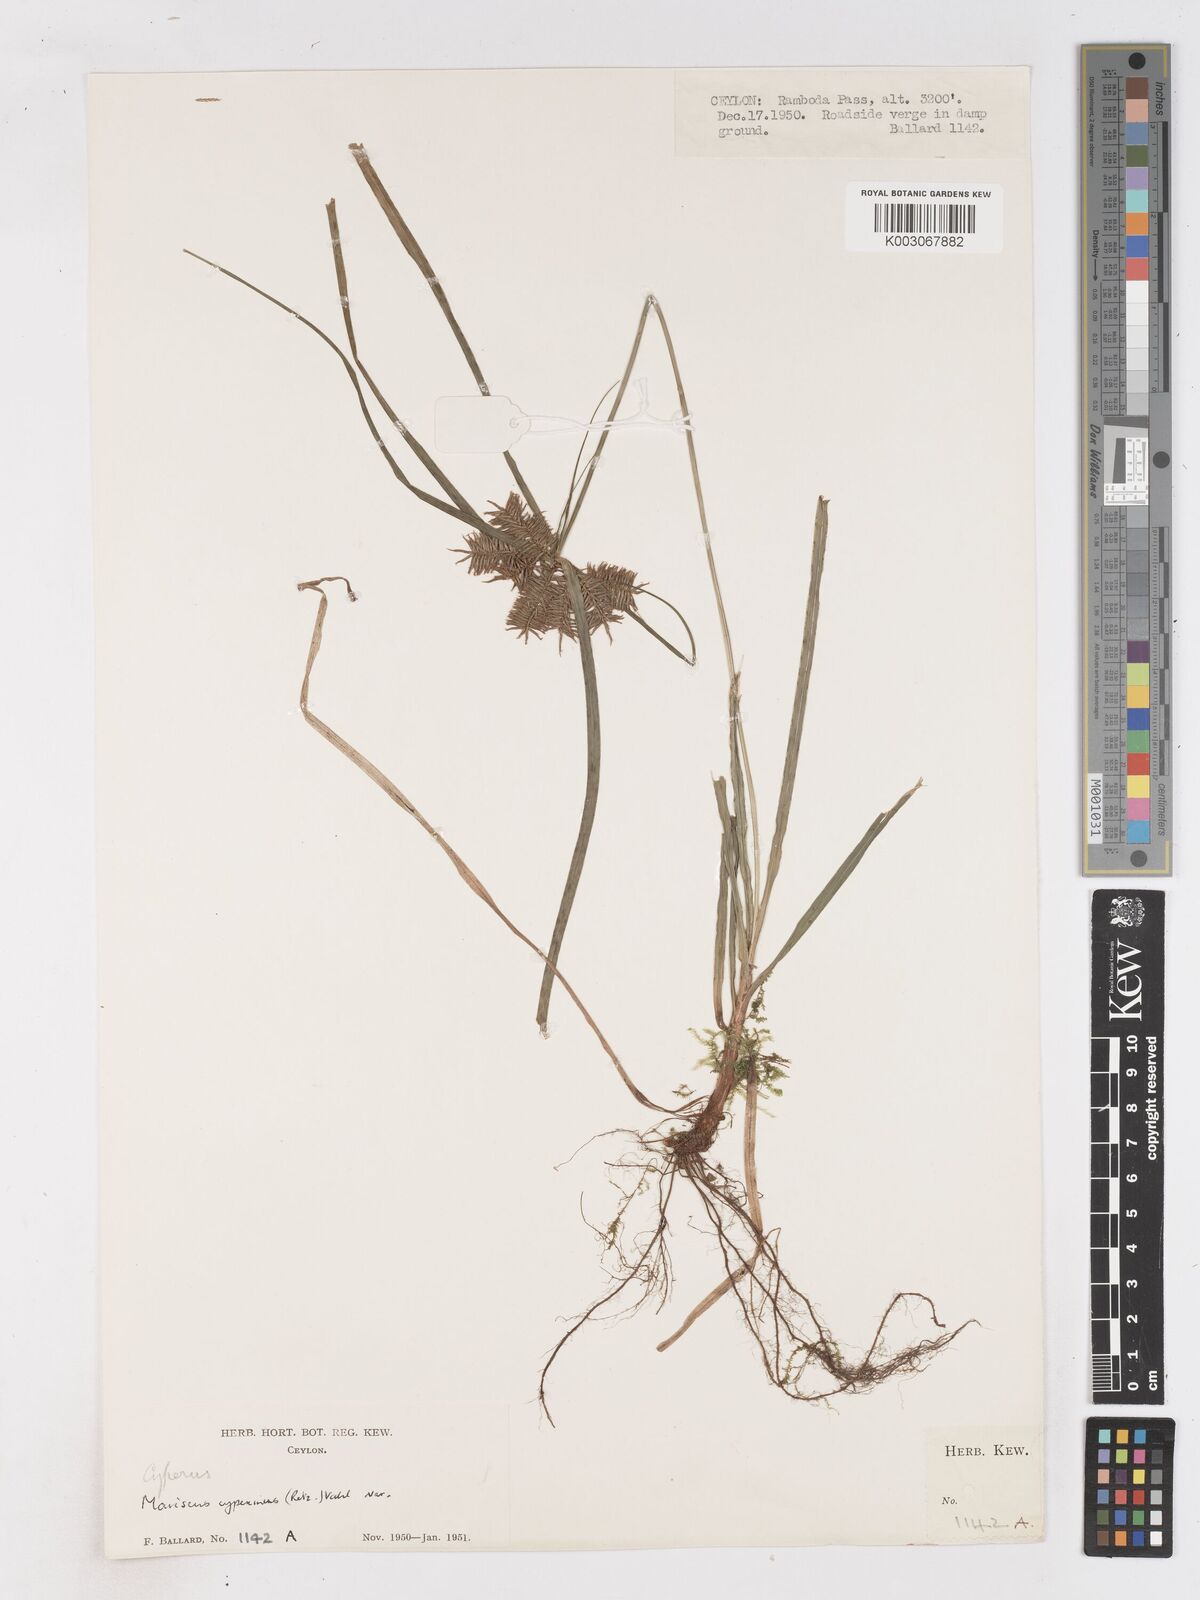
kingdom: Plantae
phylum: Tracheophyta
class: Liliopsida
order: Poales
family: Cyperaceae
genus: Cyperus
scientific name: Cyperus cyperinus
